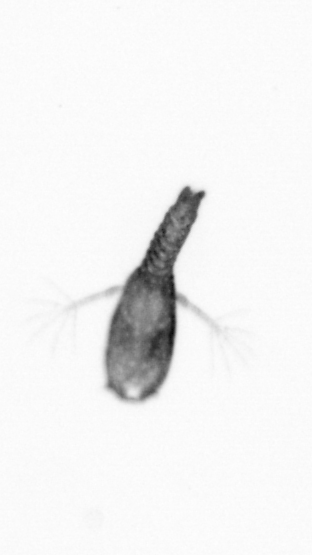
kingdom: Animalia
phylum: Arthropoda
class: Copepoda
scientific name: Copepoda
